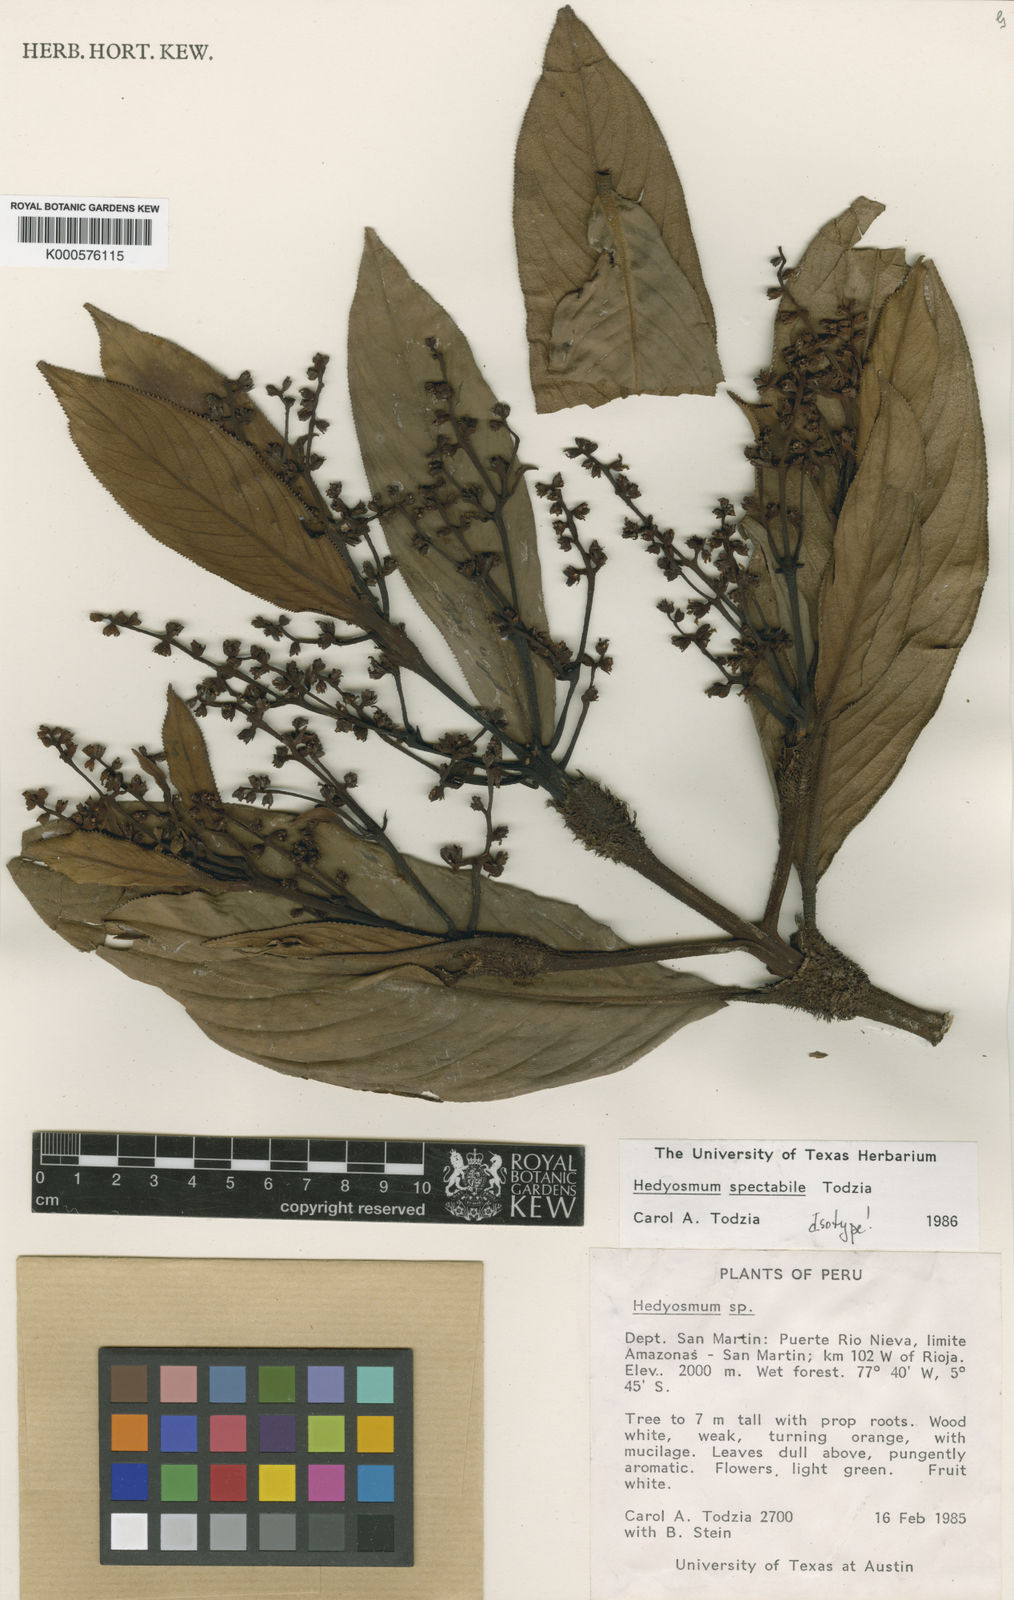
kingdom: Plantae
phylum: Tracheophyta
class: Magnoliopsida
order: Chloranthales
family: Chloranthaceae
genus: Hedyosmum
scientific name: Hedyosmum spectabile
